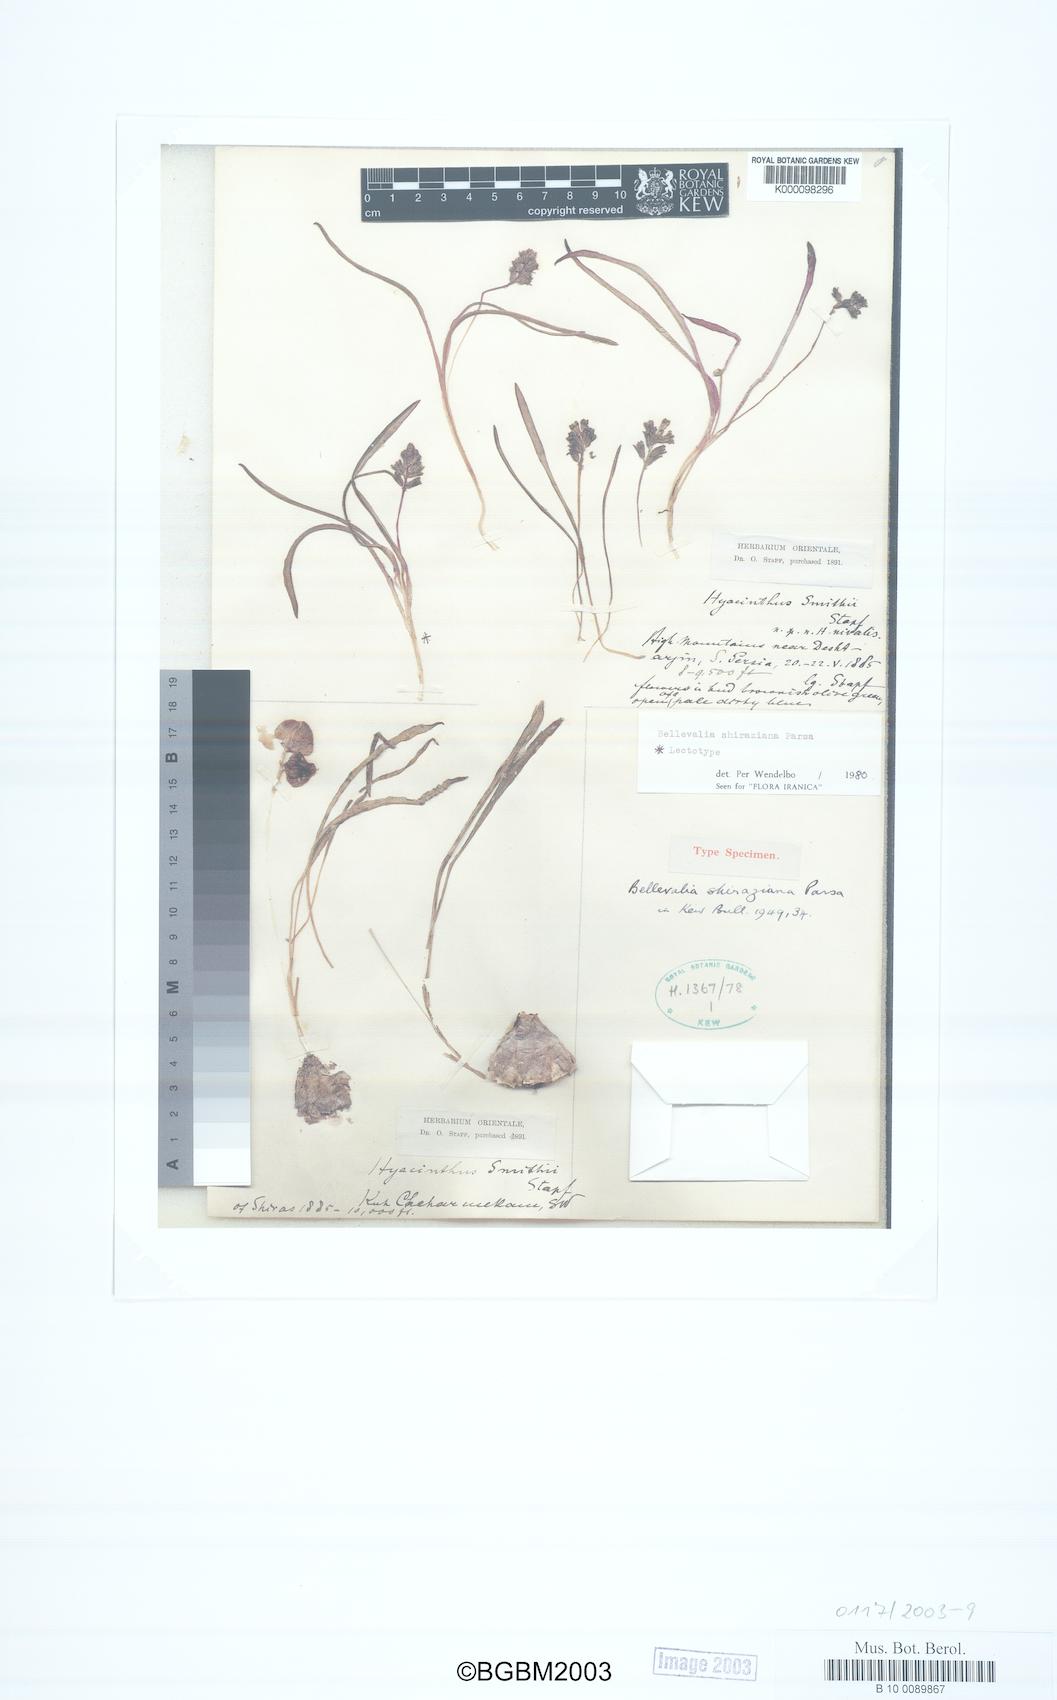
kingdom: Plantae
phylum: Tracheophyta
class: Liliopsida
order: Asparagales
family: Asparagaceae
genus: Bellevalia
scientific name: Bellevalia shiraziana
